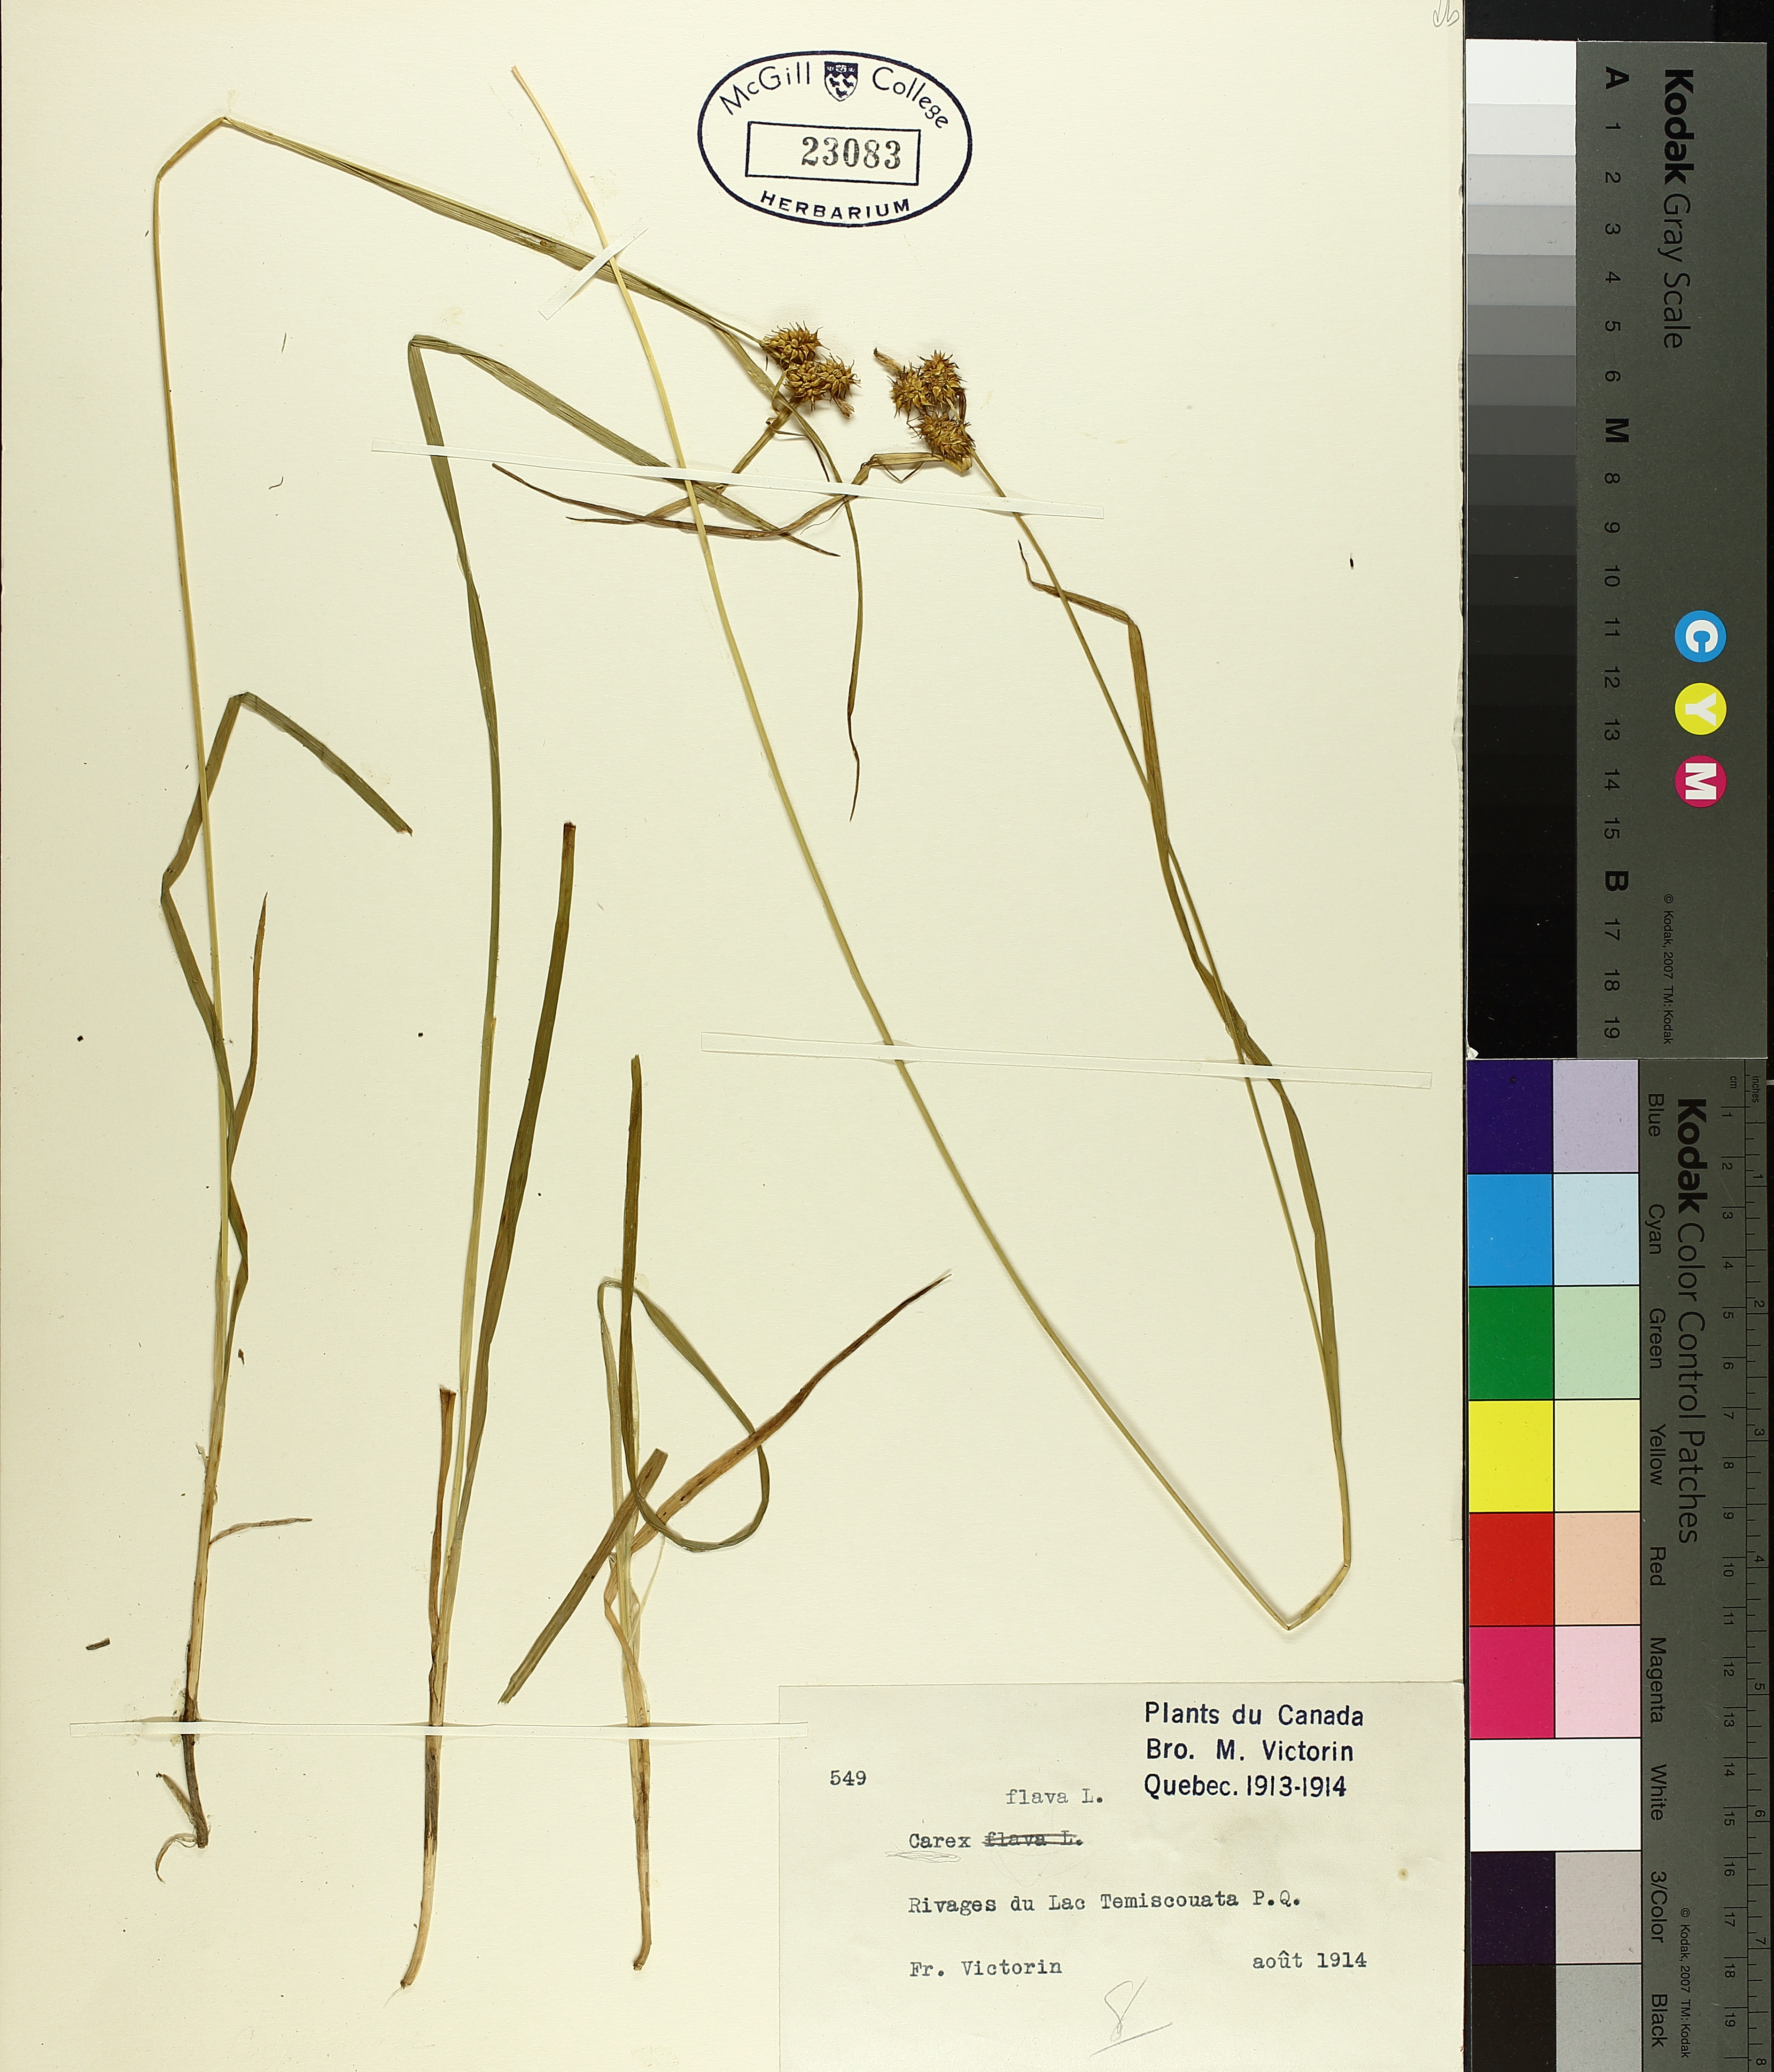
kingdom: Plantae
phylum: Tracheophyta
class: Liliopsida
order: Poales
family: Cyperaceae
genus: Carex
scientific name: Carex flava
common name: Large yellow-sedge
